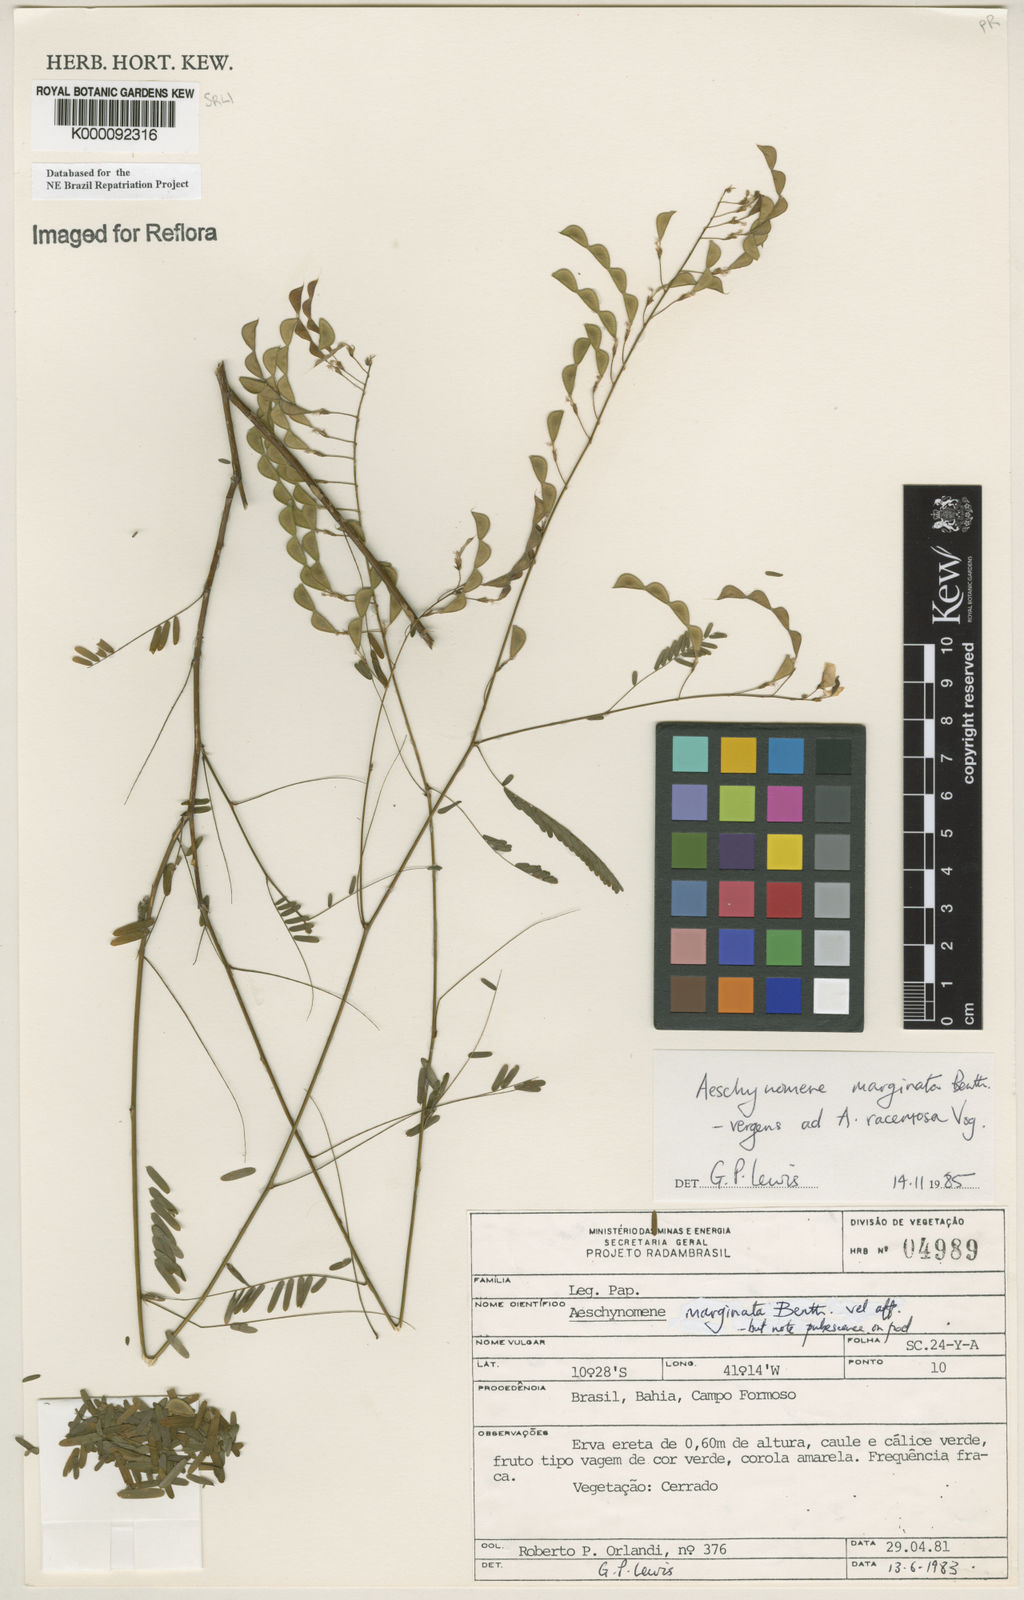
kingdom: Plantae
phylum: Tracheophyta
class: Magnoliopsida
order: Fabales
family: Fabaceae
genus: Ctenodon
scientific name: Ctenodon marginatus
